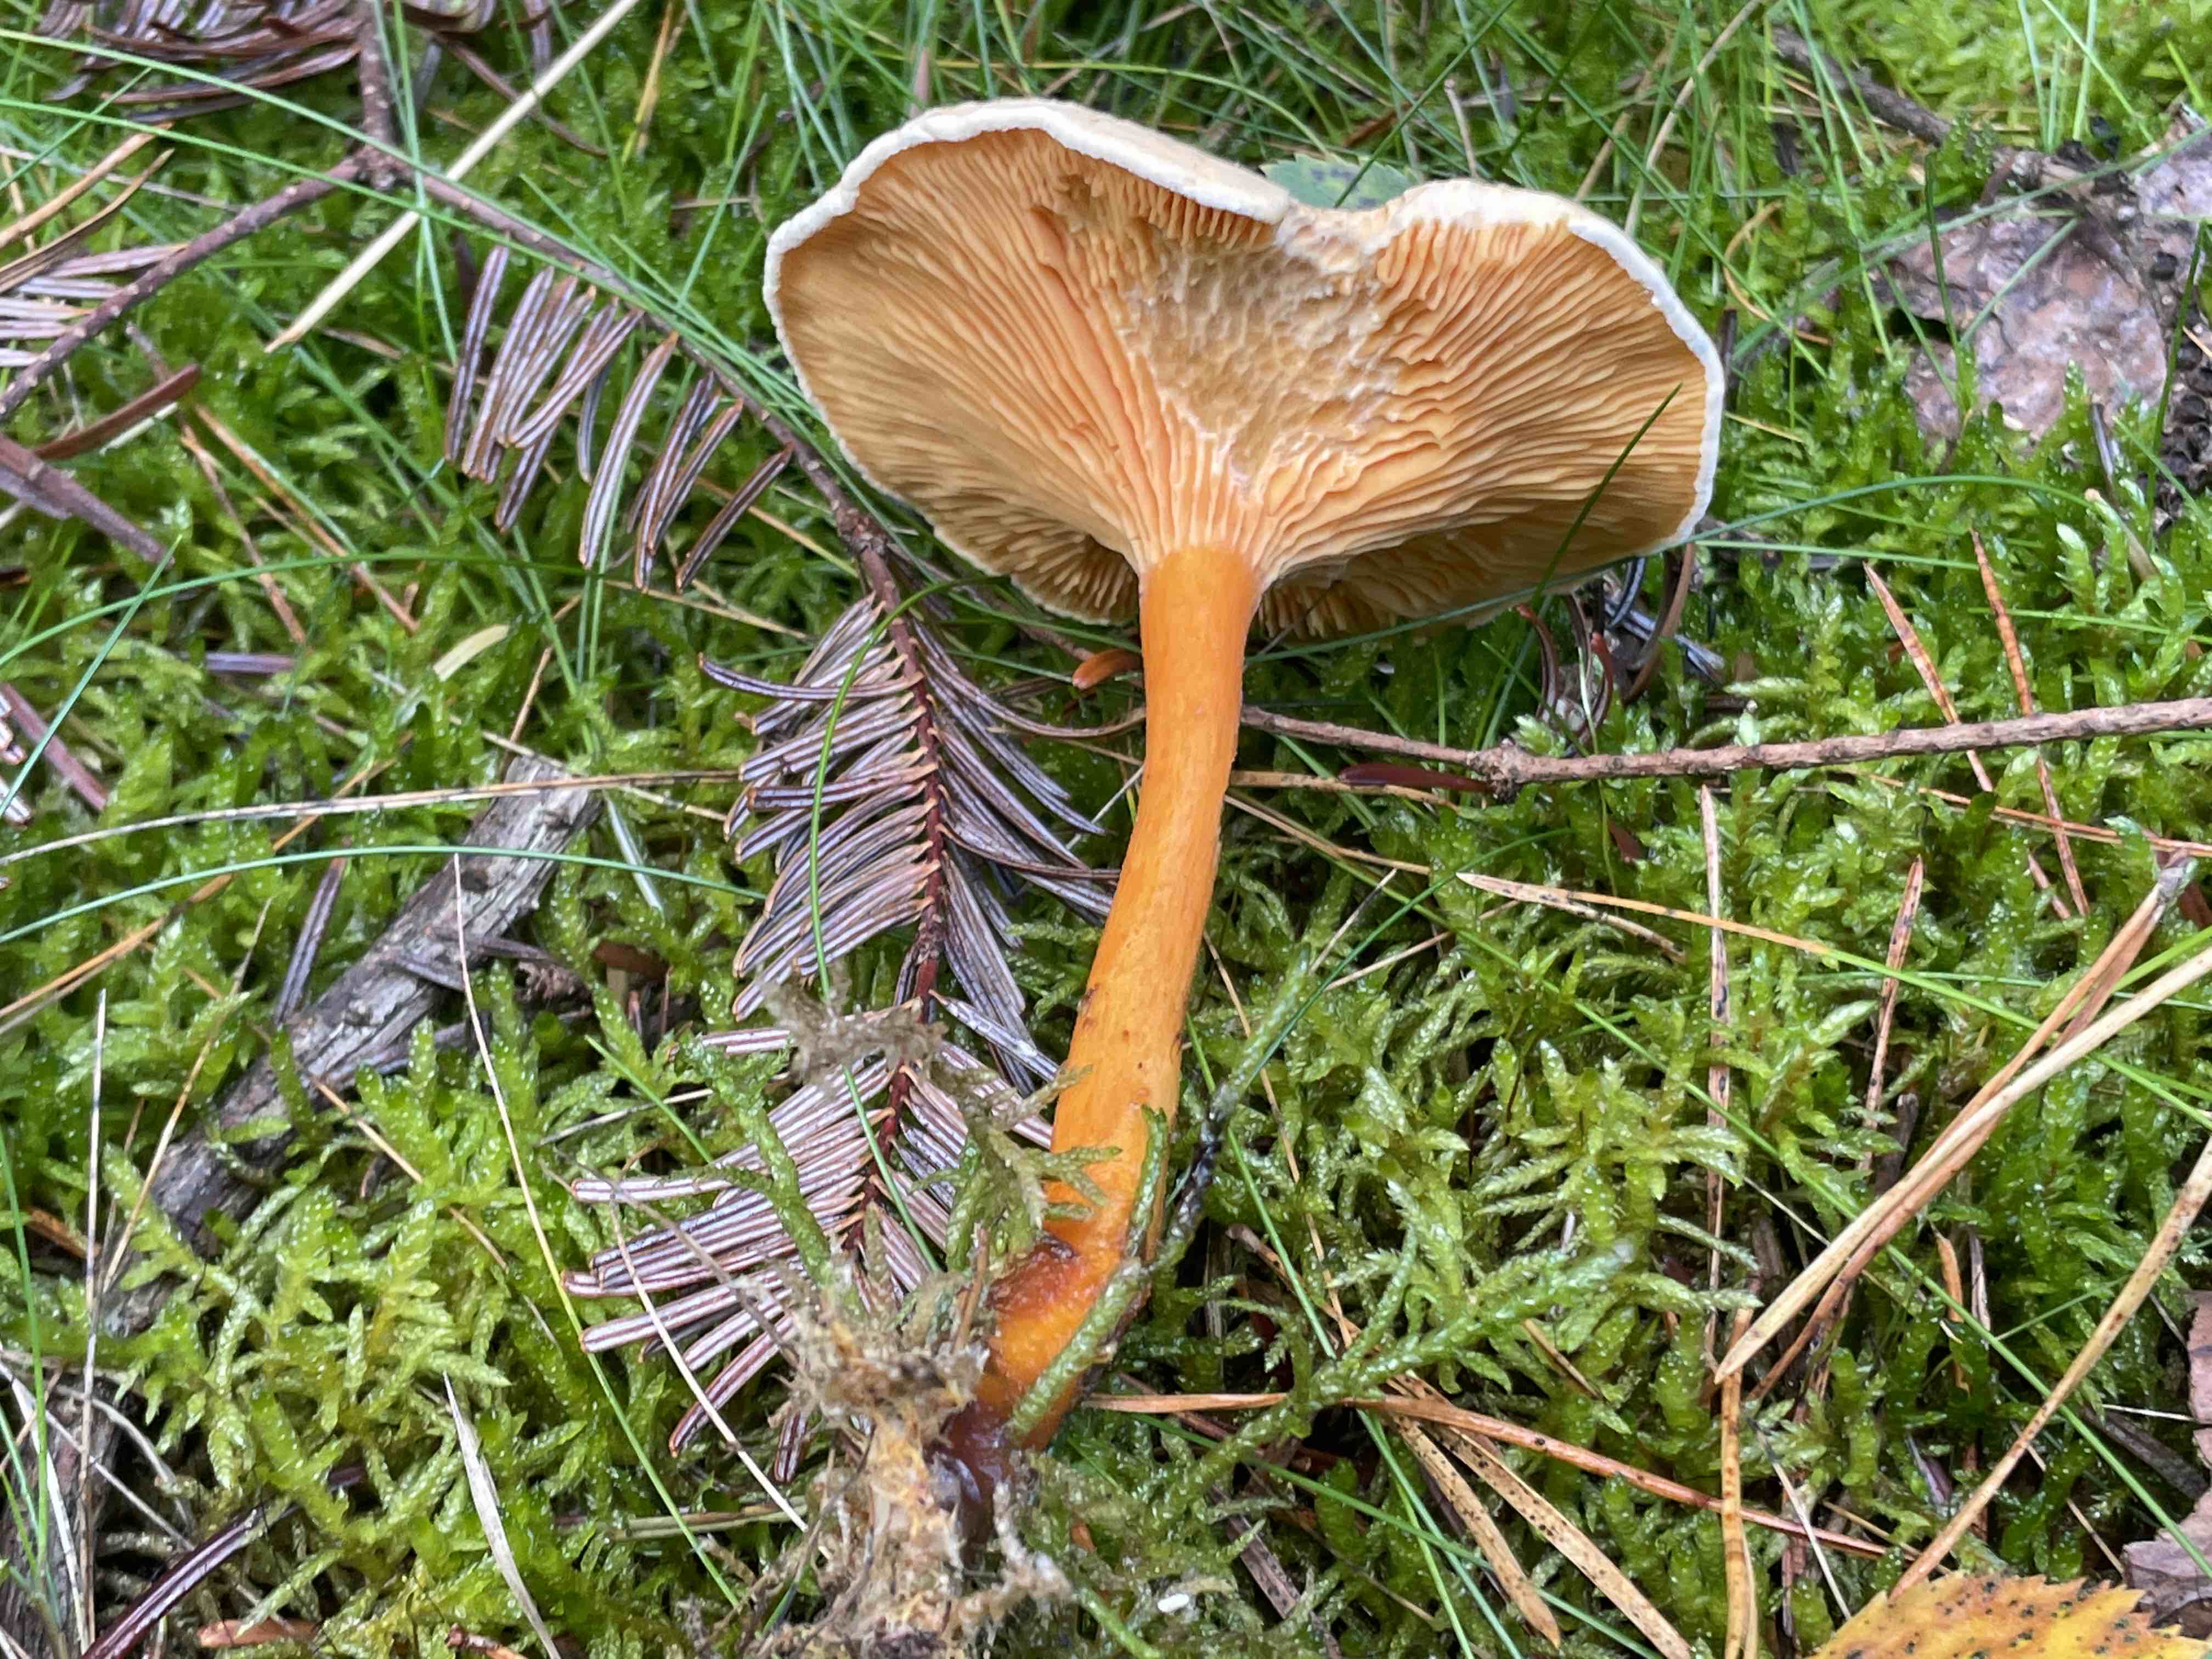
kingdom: Fungi
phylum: Basidiomycota
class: Agaricomycetes
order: Boletales
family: Hygrophoropsidaceae
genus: Hygrophoropsis
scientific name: Hygrophoropsis aurantiaca
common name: almindelig orangekantarel
